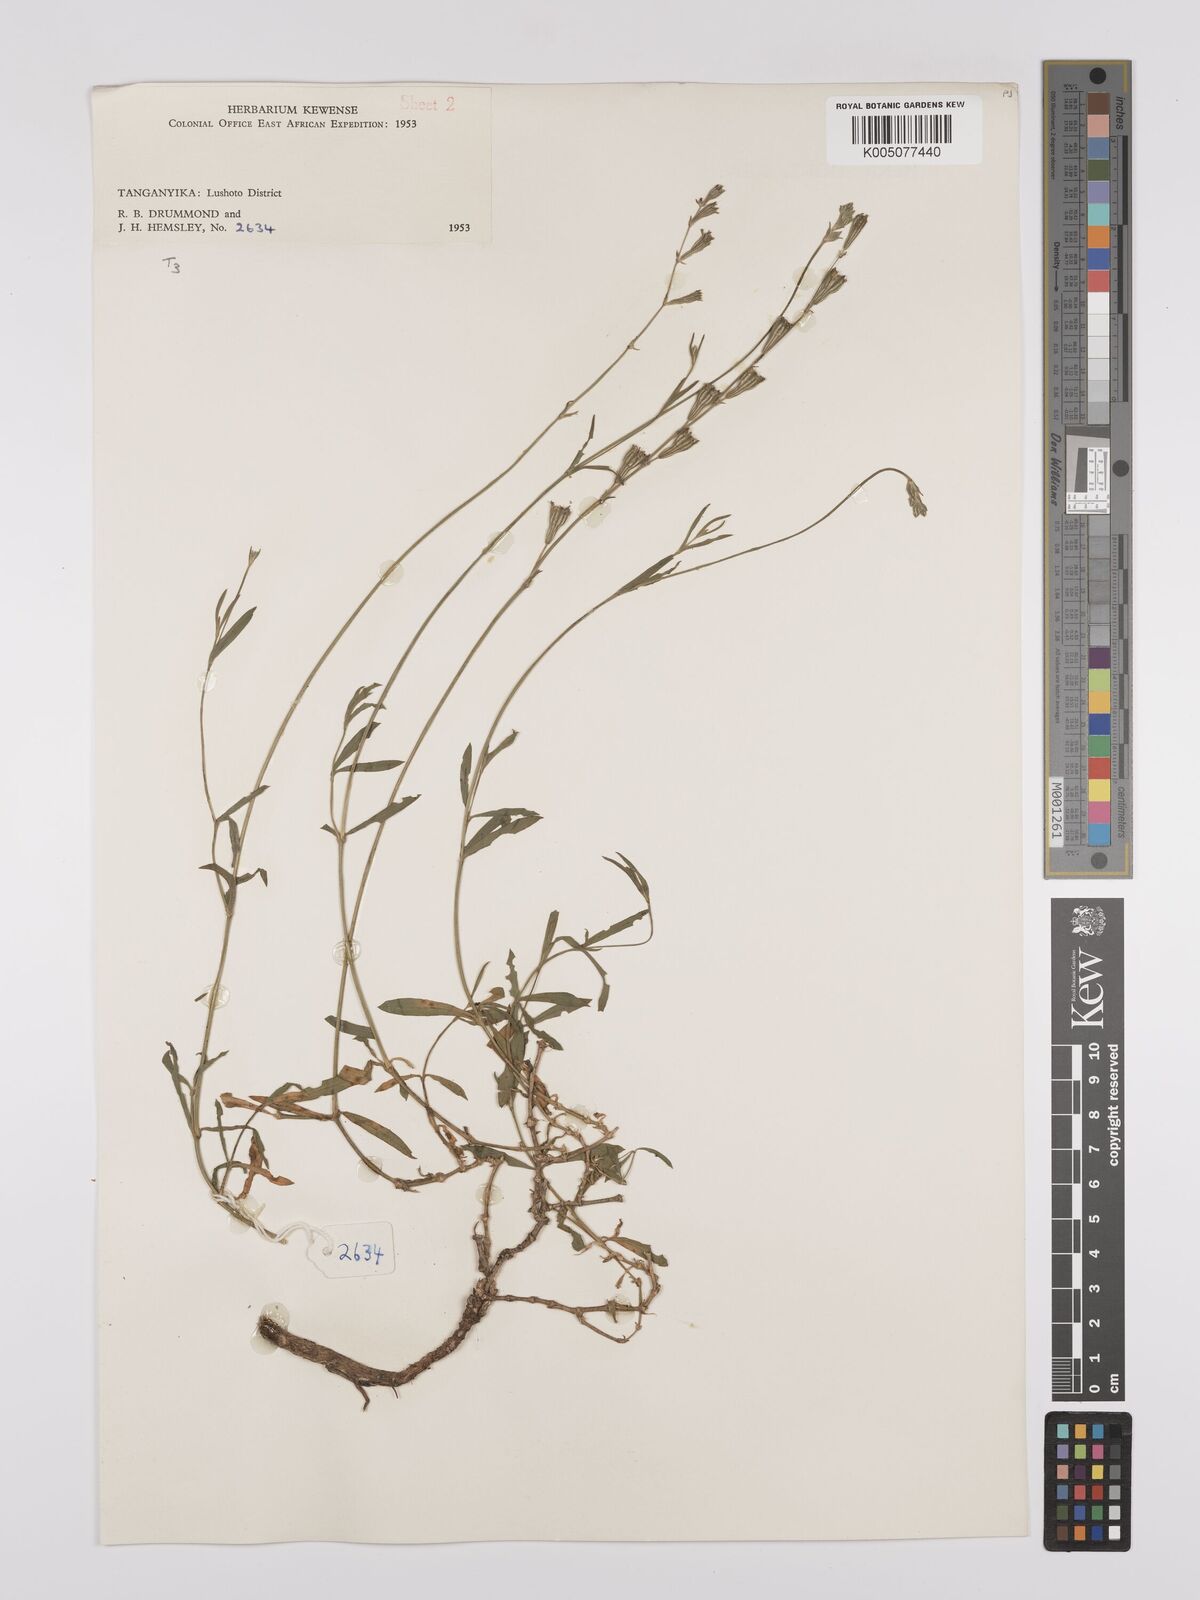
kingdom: Plantae
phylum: Tracheophyta
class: Magnoliopsida
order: Caryophyllales
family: Caryophyllaceae
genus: Silene
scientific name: Silene burchellii
